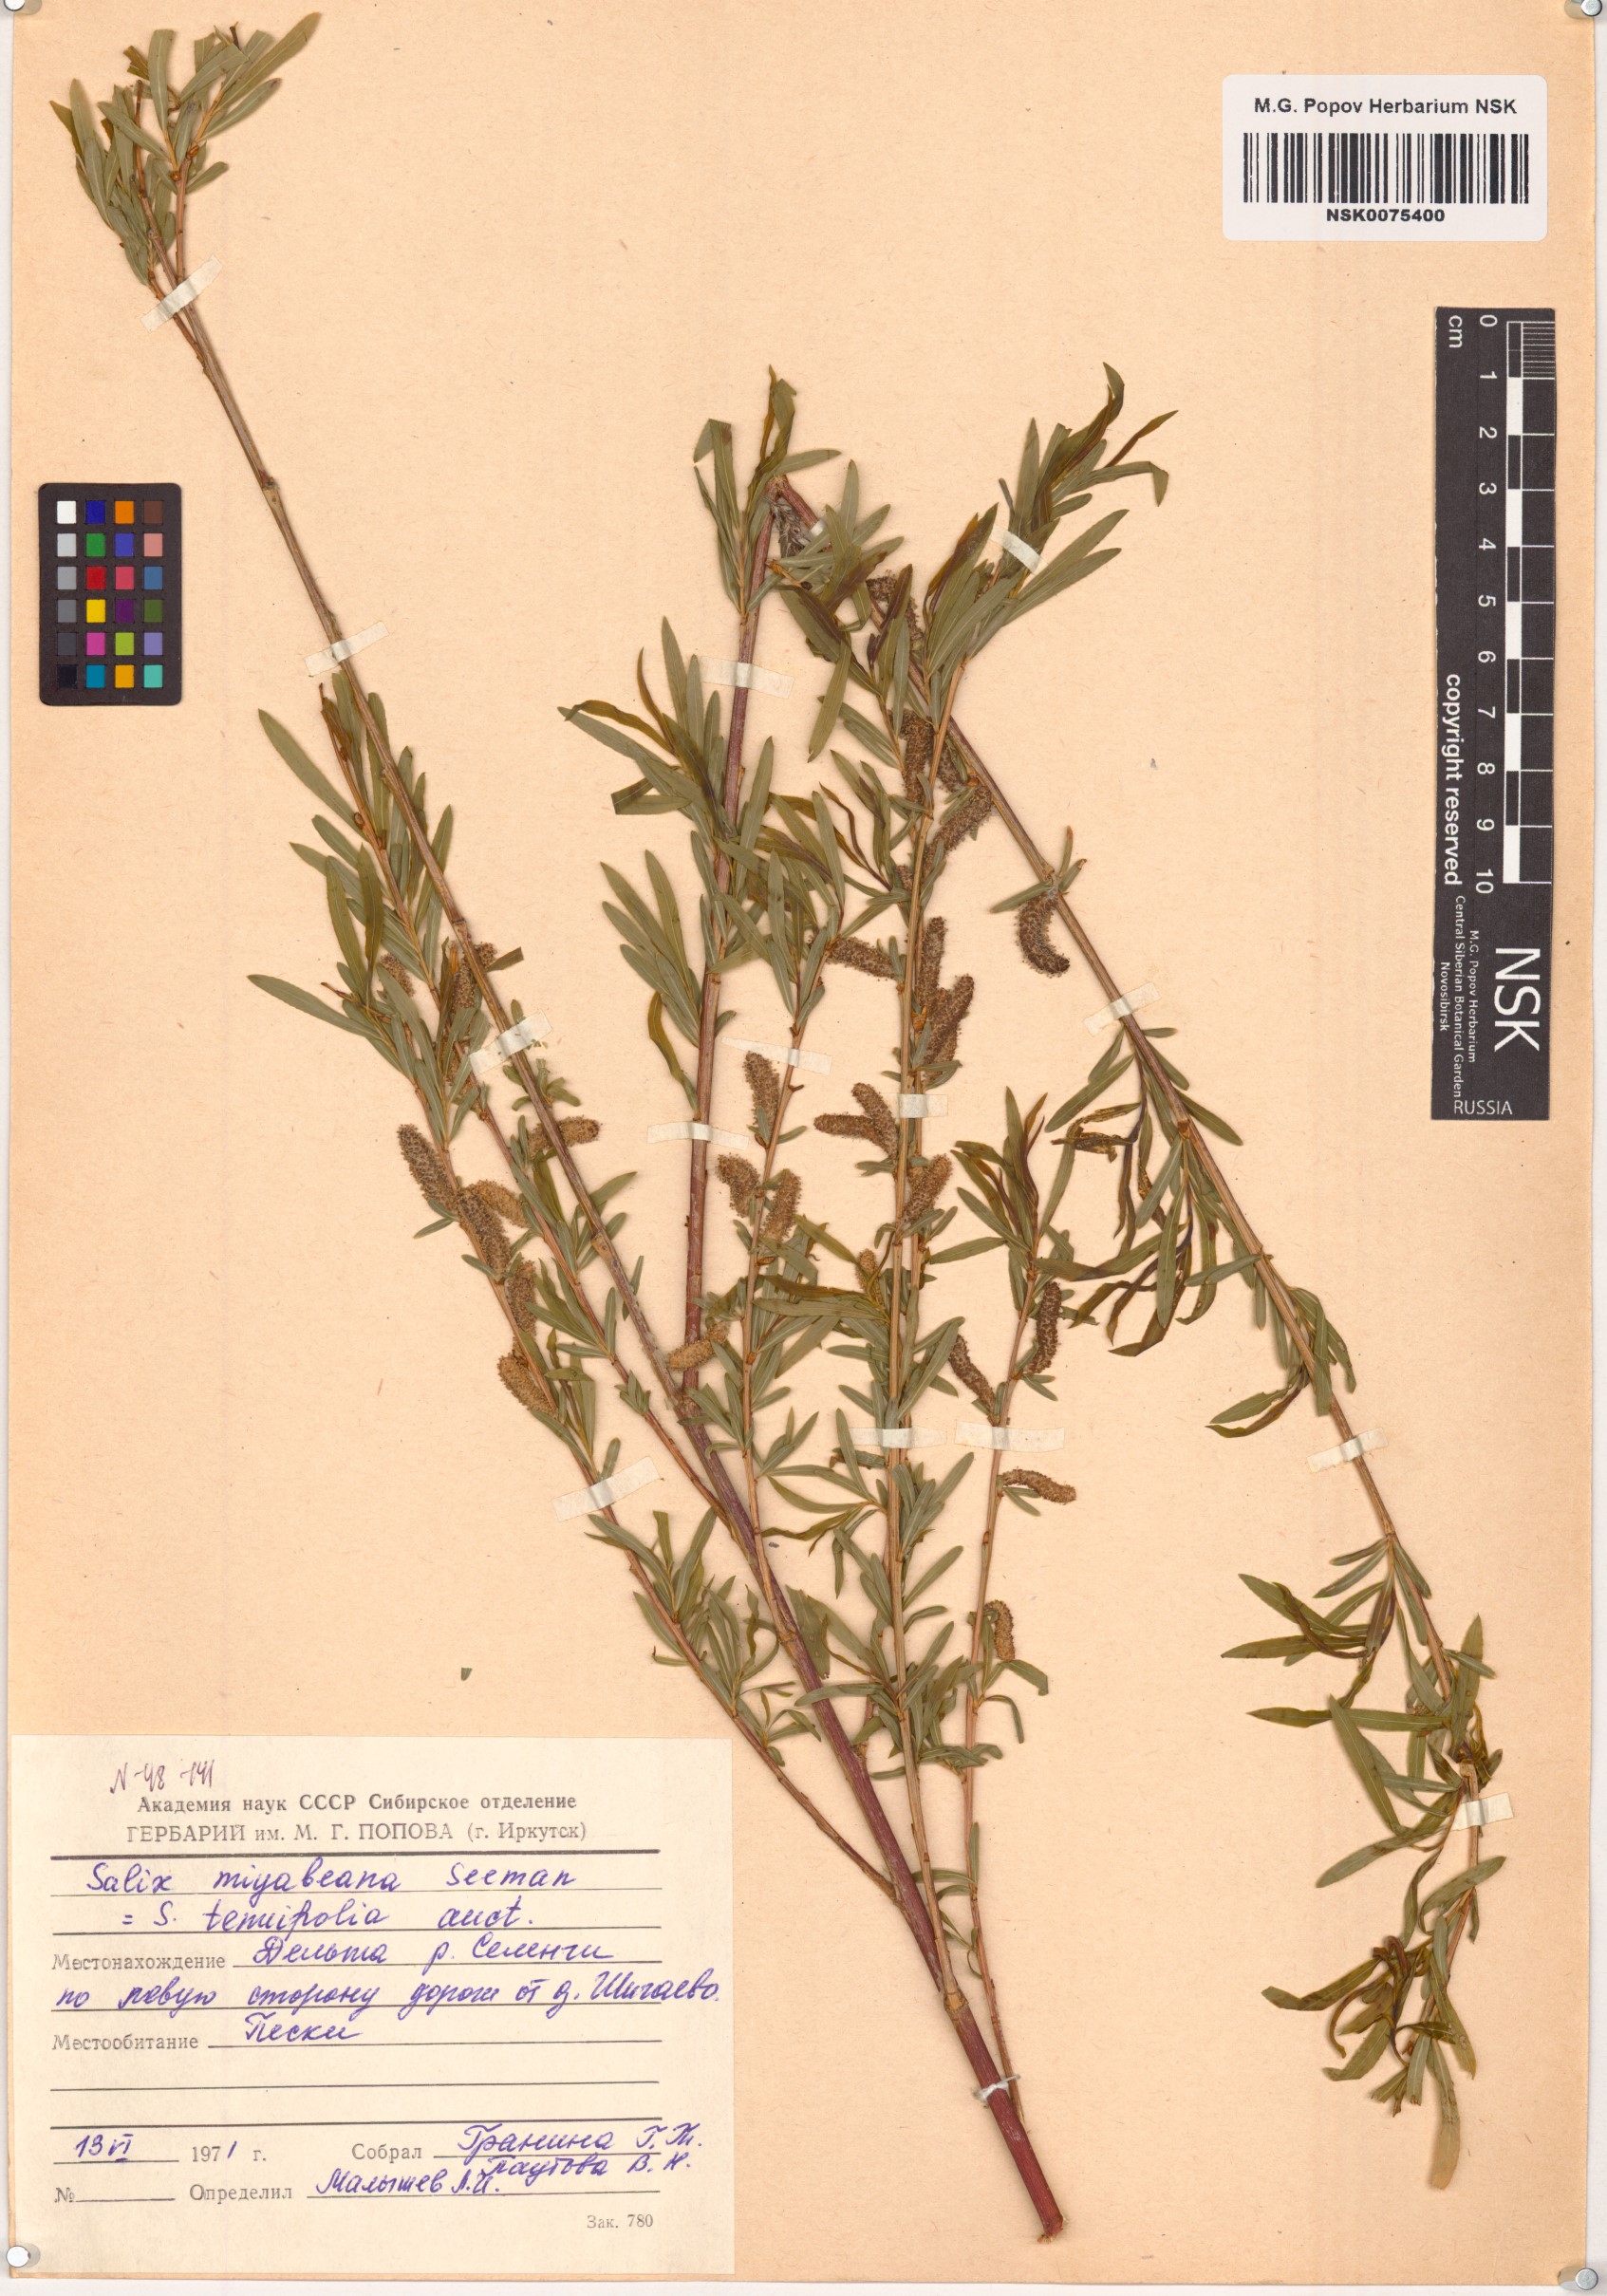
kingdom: Plantae
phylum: Tracheophyta
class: Magnoliopsida
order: Malpighiales
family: Salicaceae
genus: Salix
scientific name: Salix miyabeana
